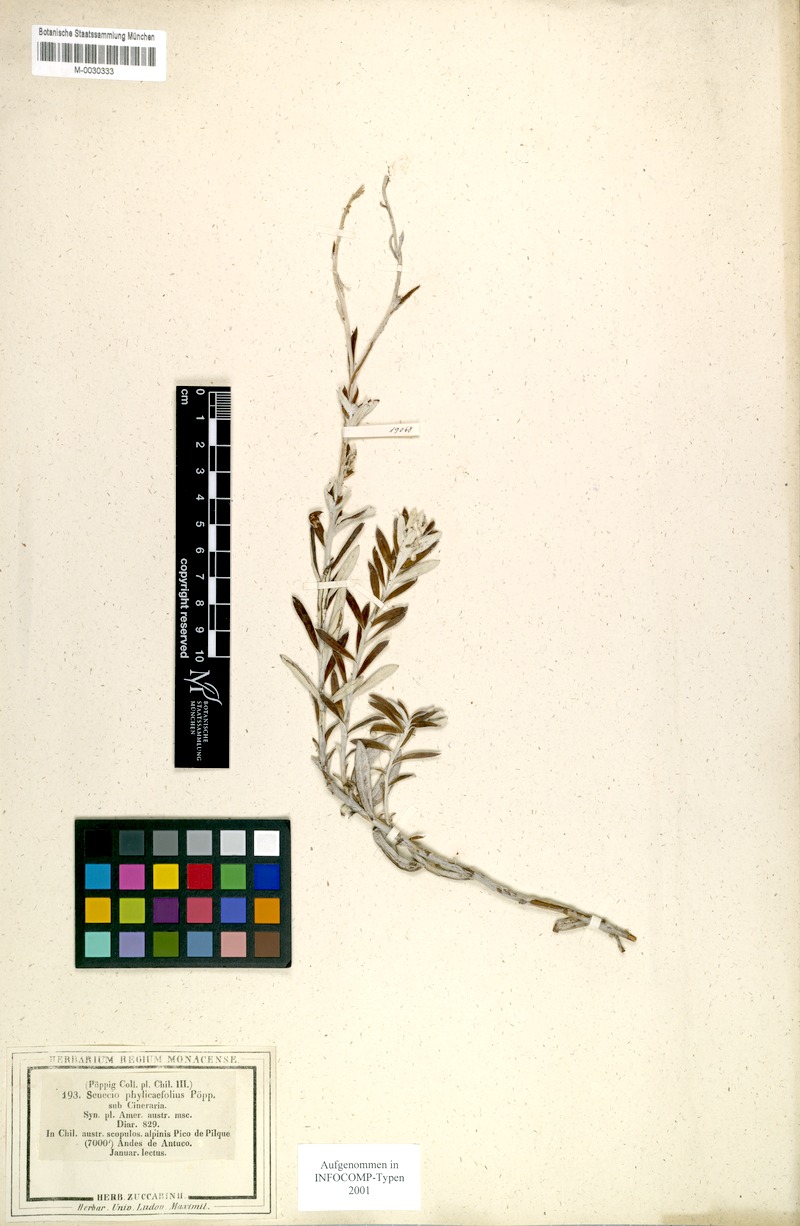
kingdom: Plantae
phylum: Tracheophyta
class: Magnoliopsida
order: Asterales
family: Asteraceae
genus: Senecio
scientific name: Senecio phylicifolius
